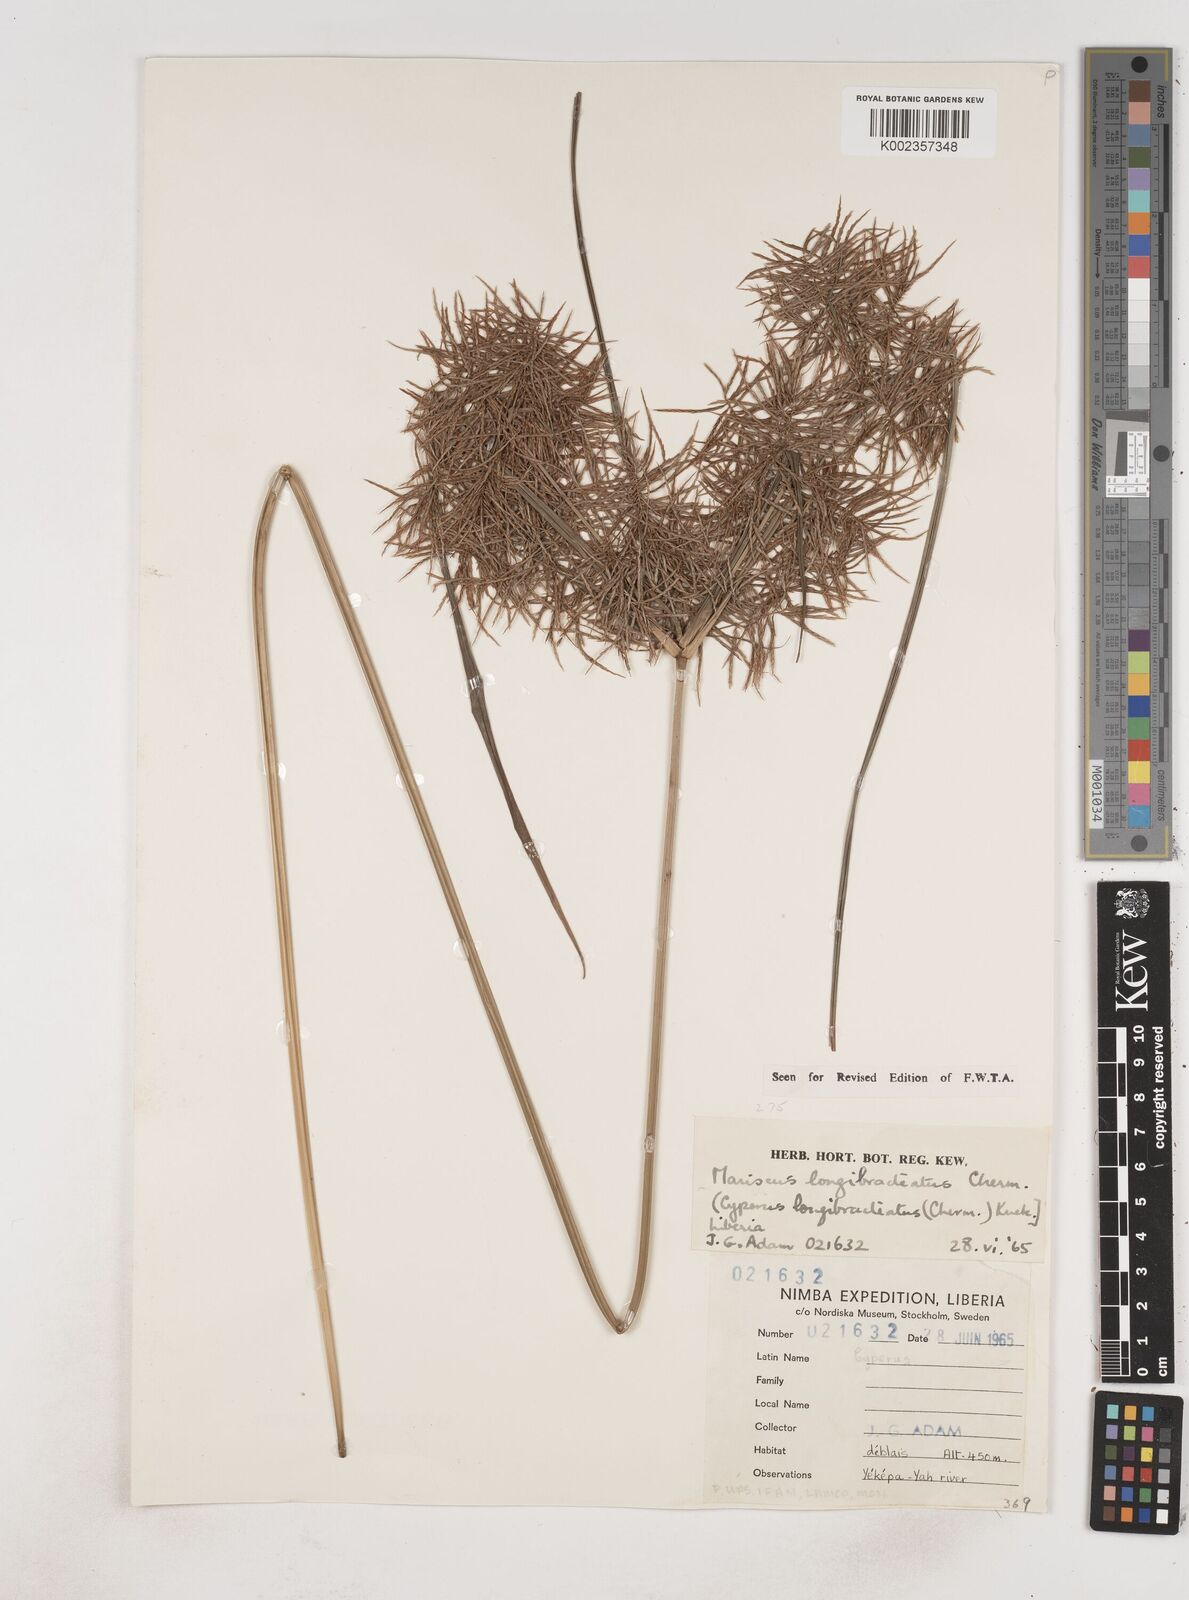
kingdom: Plantae
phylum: Tracheophyta
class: Liliopsida
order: Poales
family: Cyperaceae
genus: Cyperus
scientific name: Cyperus distans
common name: Slender cyperus
